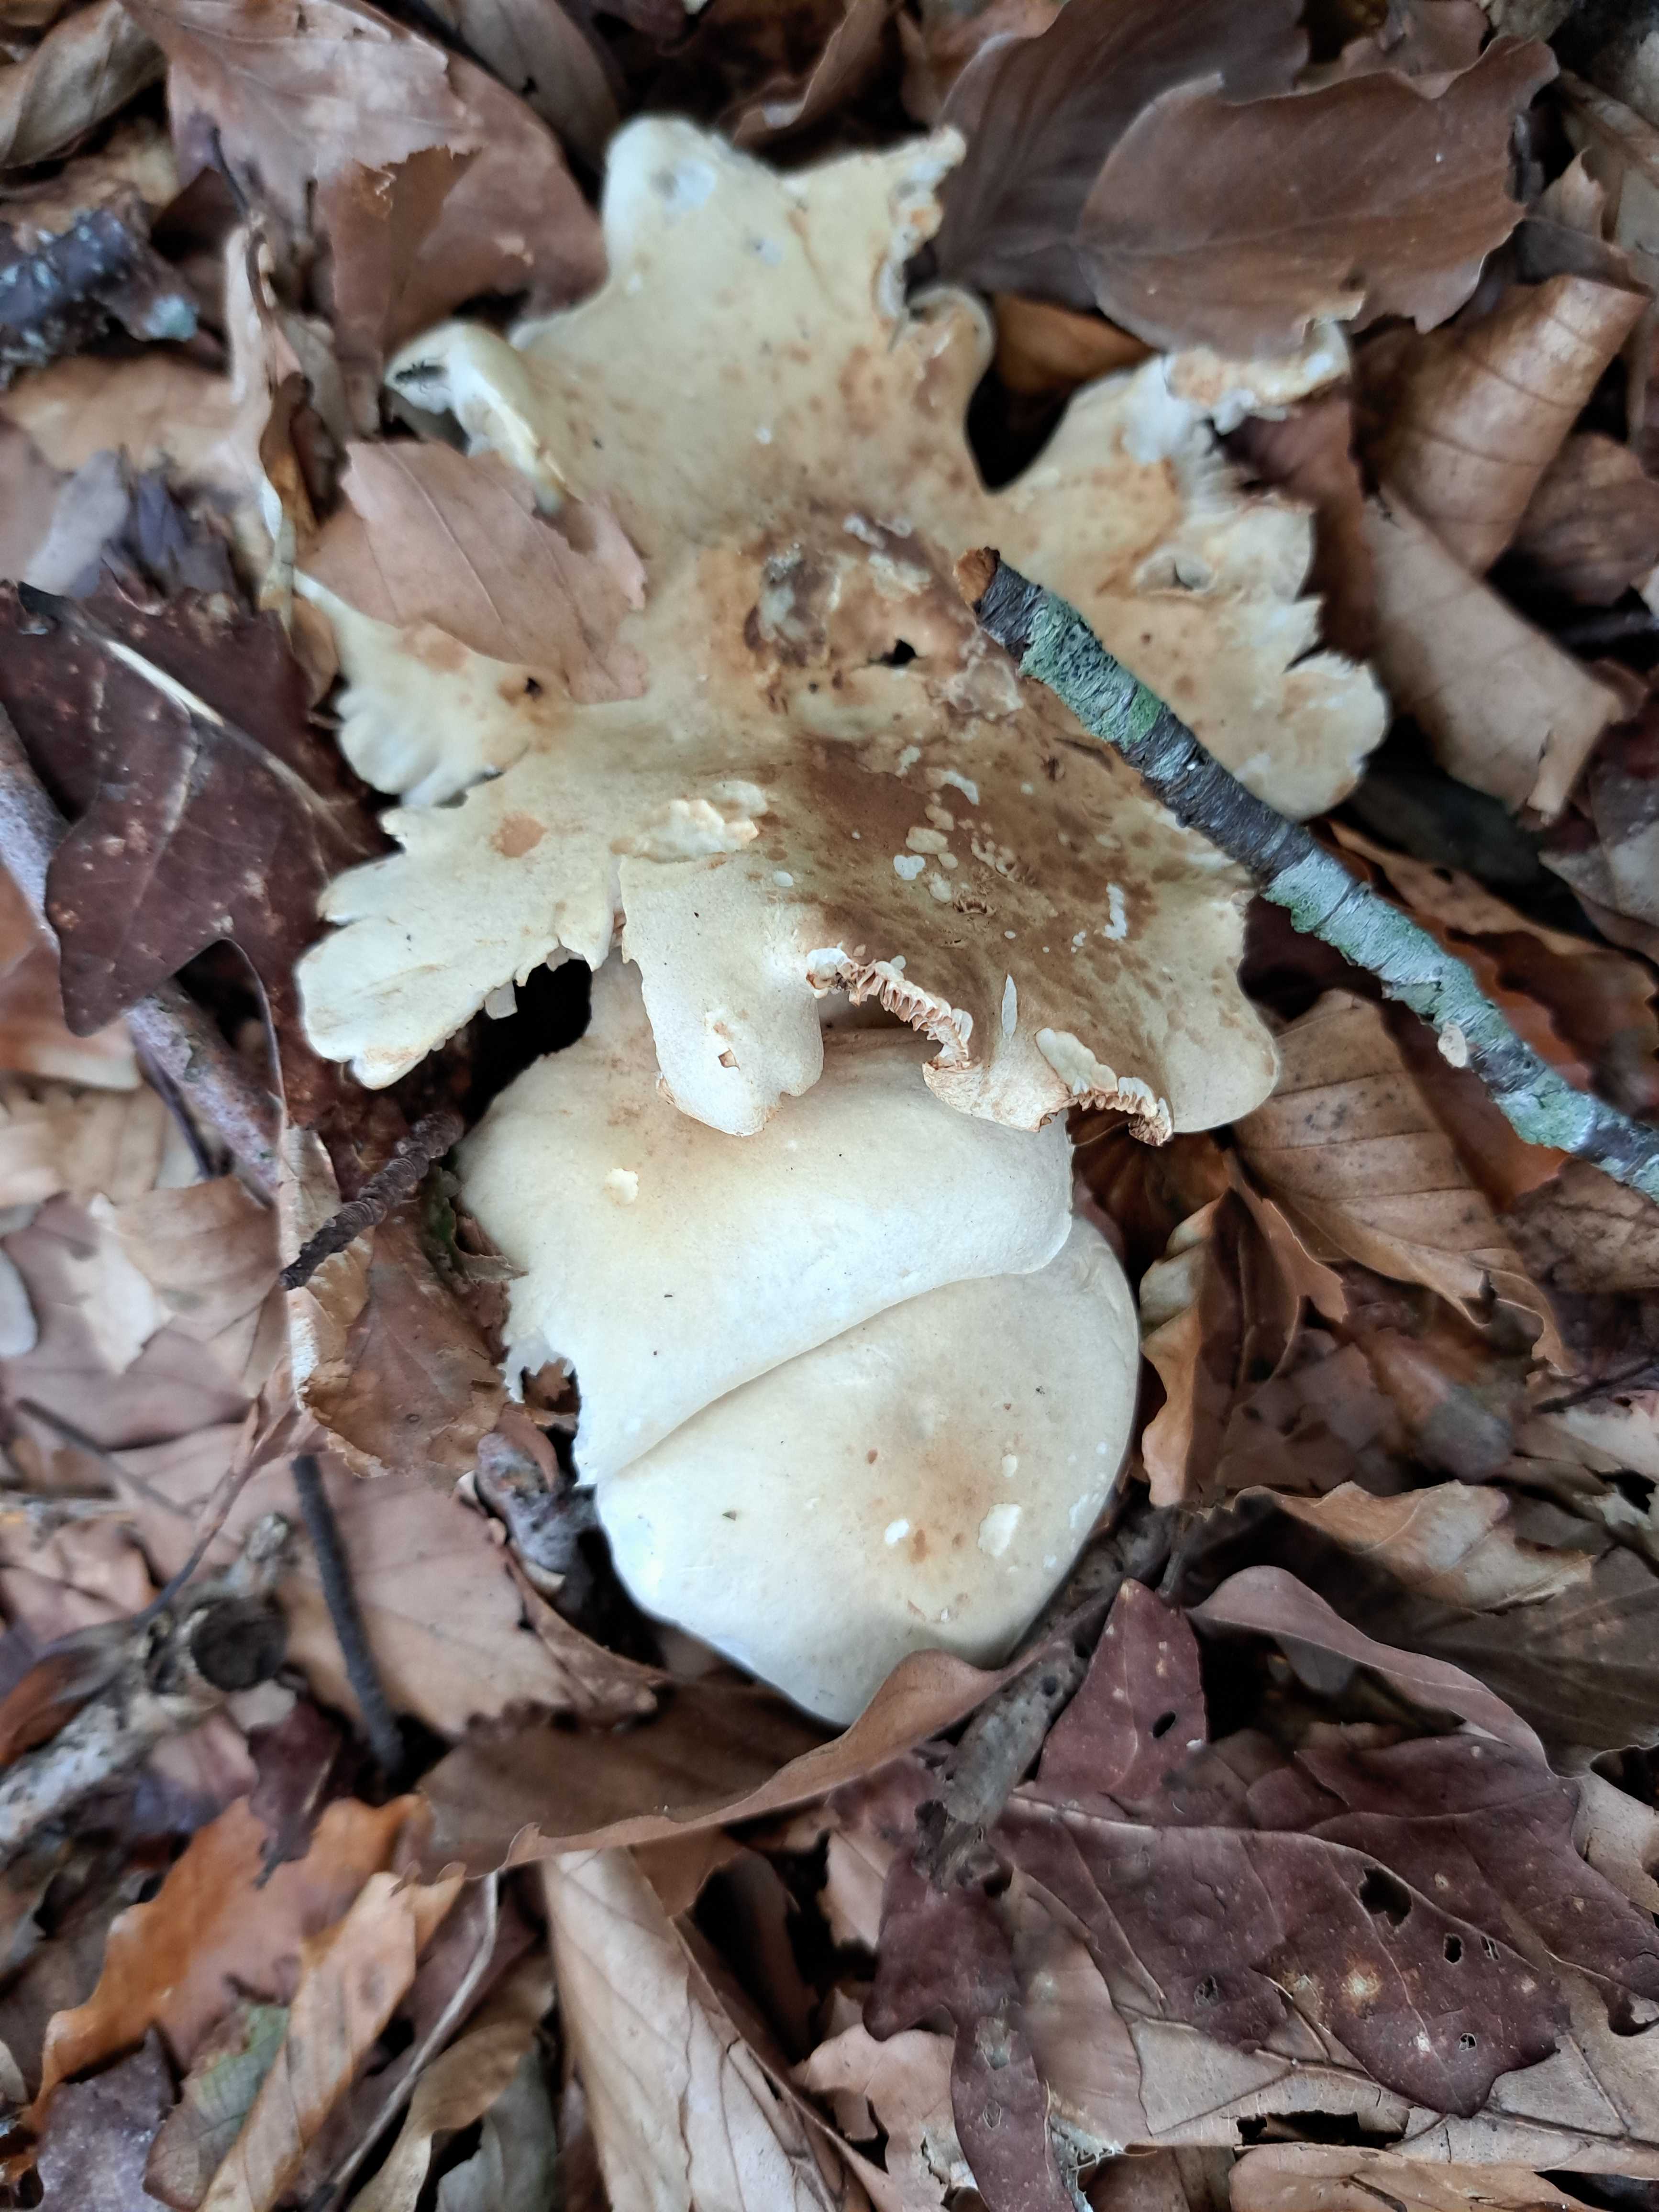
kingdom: Fungi
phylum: Basidiomycota
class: Agaricomycetes
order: Agaricales
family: Tricholomataceae
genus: Tricholoma
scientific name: Tricholoma
